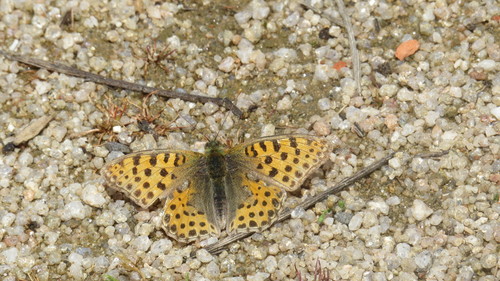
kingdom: Animalia
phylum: Arthropoda
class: Insecta
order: Lepidoptera
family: Nymphalidae
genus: Issoria
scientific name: Issoria lathonia
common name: Queen of spain fritillary
